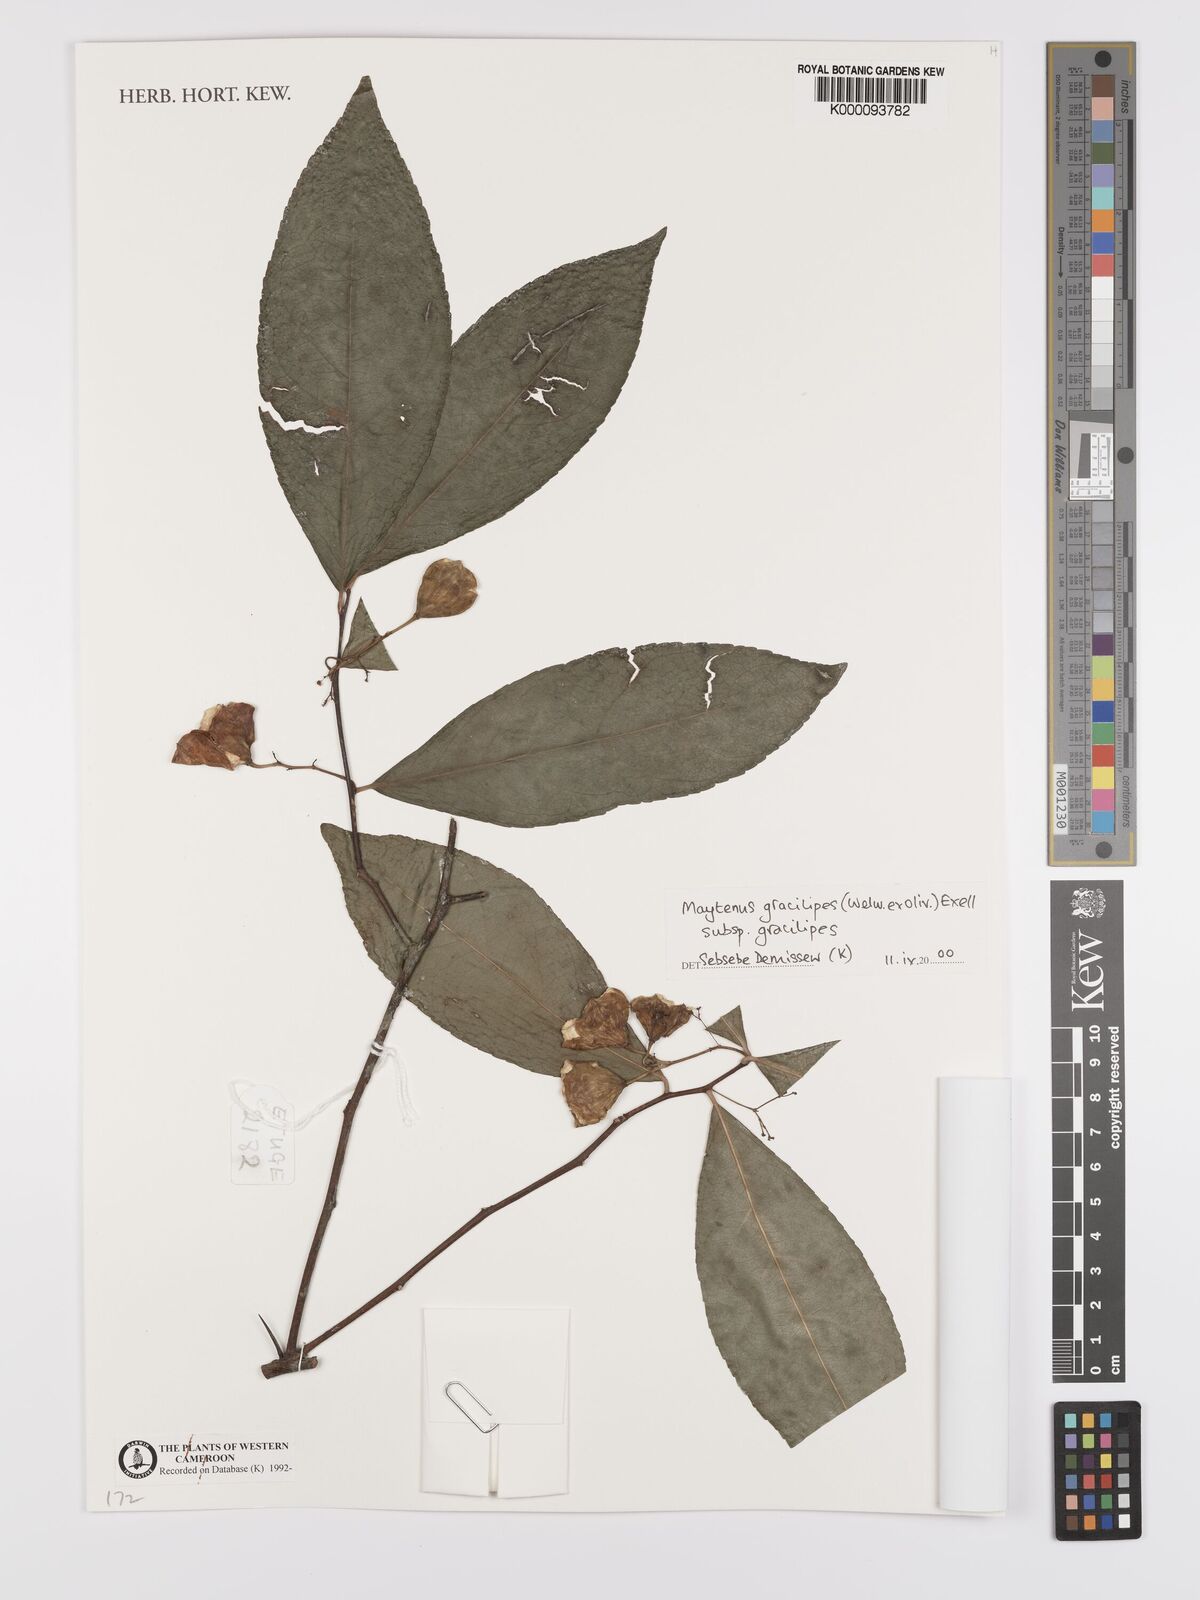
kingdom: Plantae
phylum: Tracheophyta
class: Magnoliopsida
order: Celastrales
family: Celastraceae
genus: Gymnosporia
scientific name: Gymnosporia gracilipes
